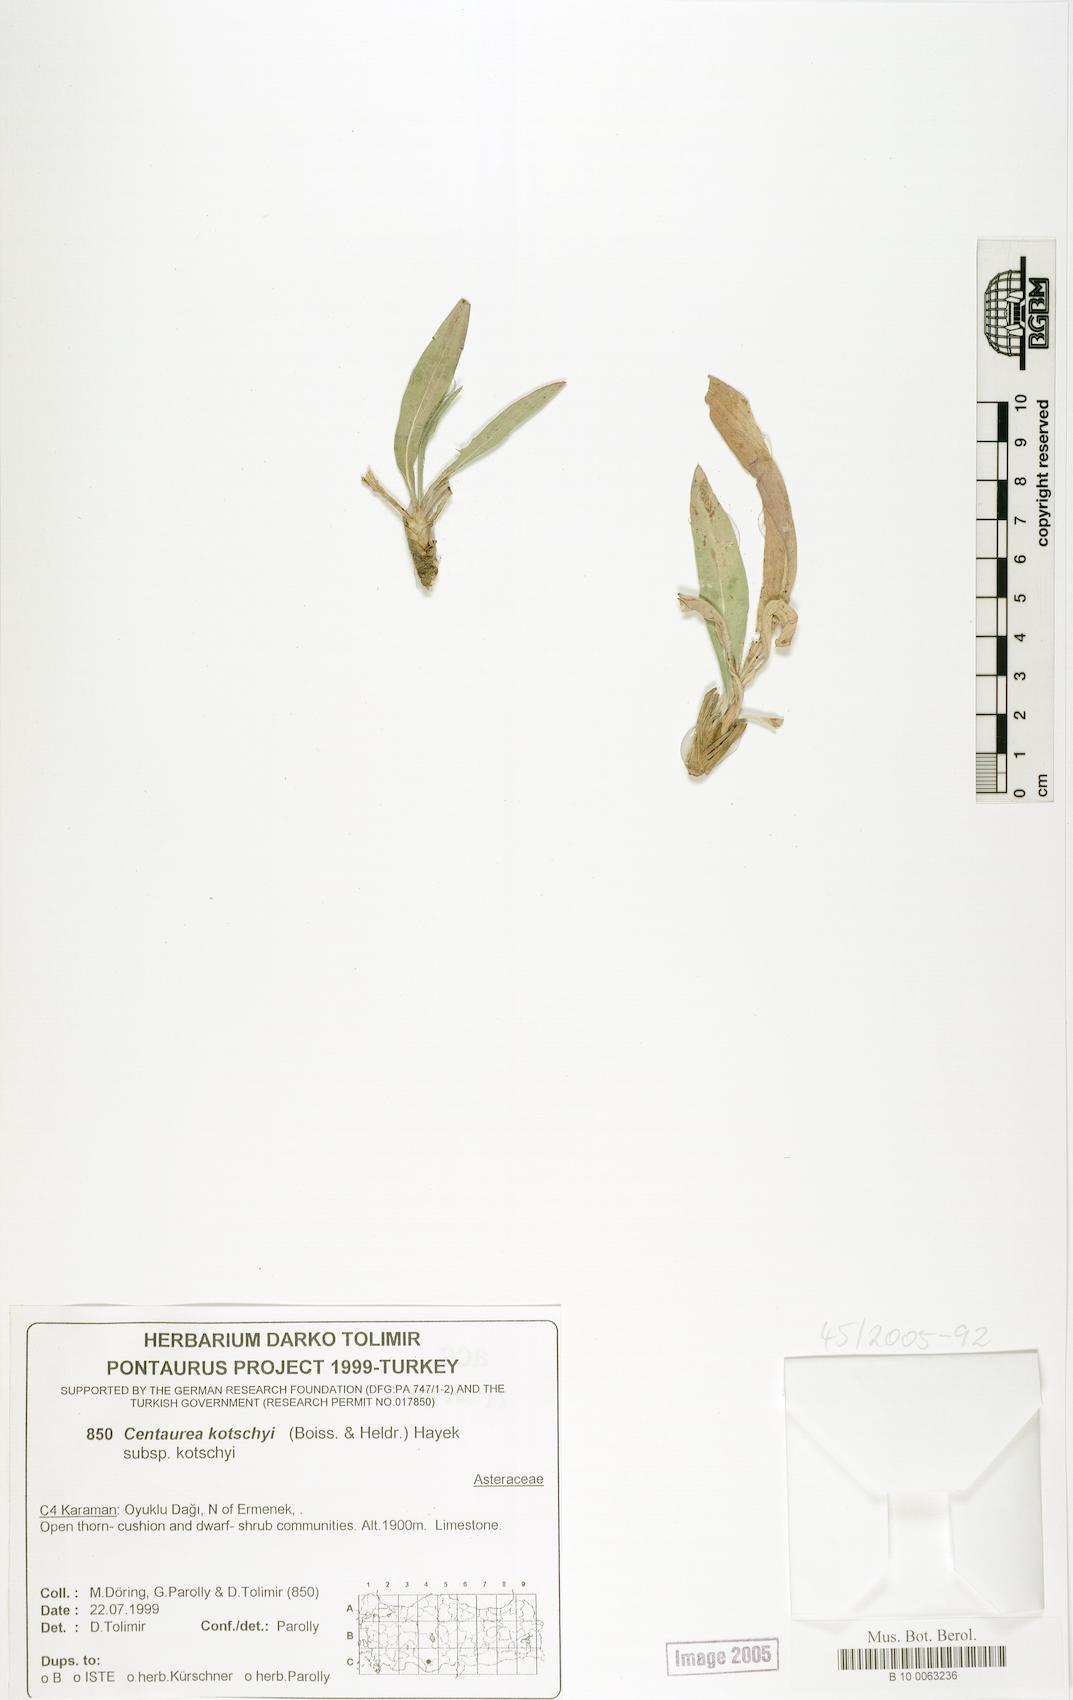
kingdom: Plantae
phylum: Tracheophyta
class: Magnoliopsida
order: Asterales
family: Asteraceae
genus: Centaurea
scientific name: Centaurea kotschyi
